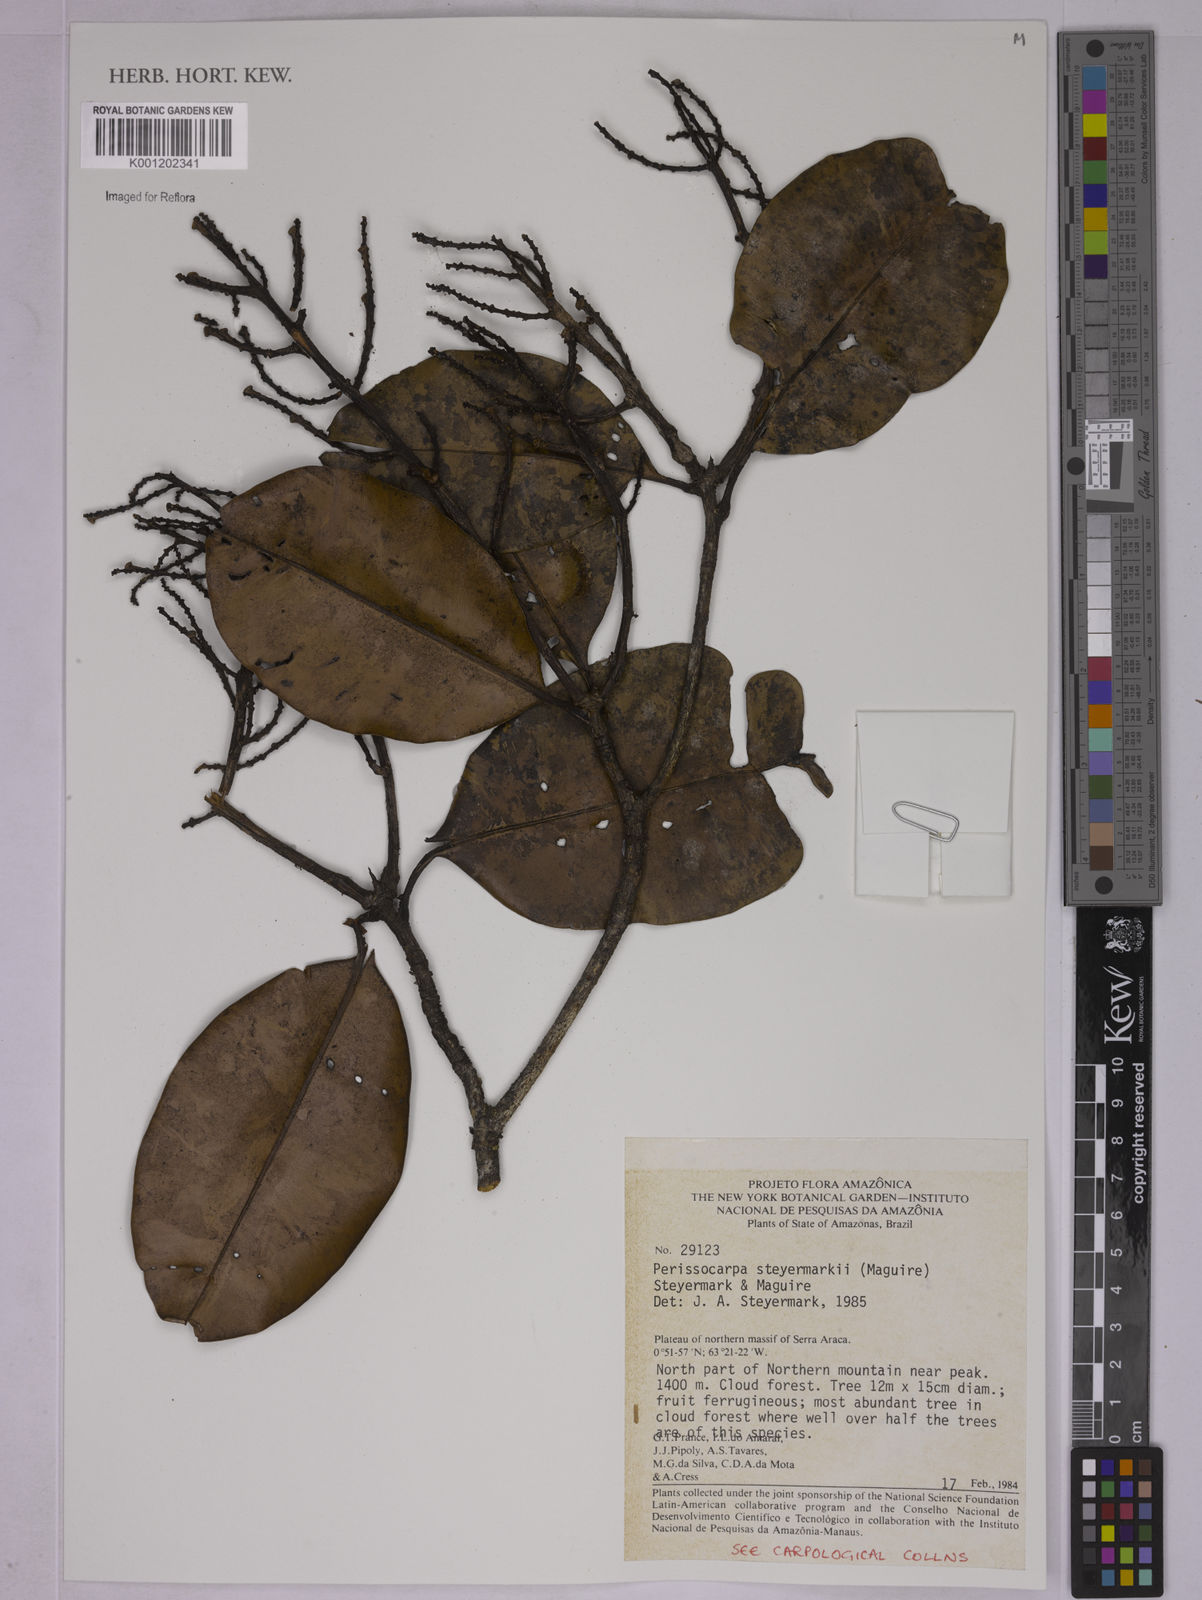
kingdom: Plantae
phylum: Tracheophyta
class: Magnoliopsida
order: Malpighiales
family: Ochnaceae
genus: Perissocarpa
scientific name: Perissocarpa steyermarkii
